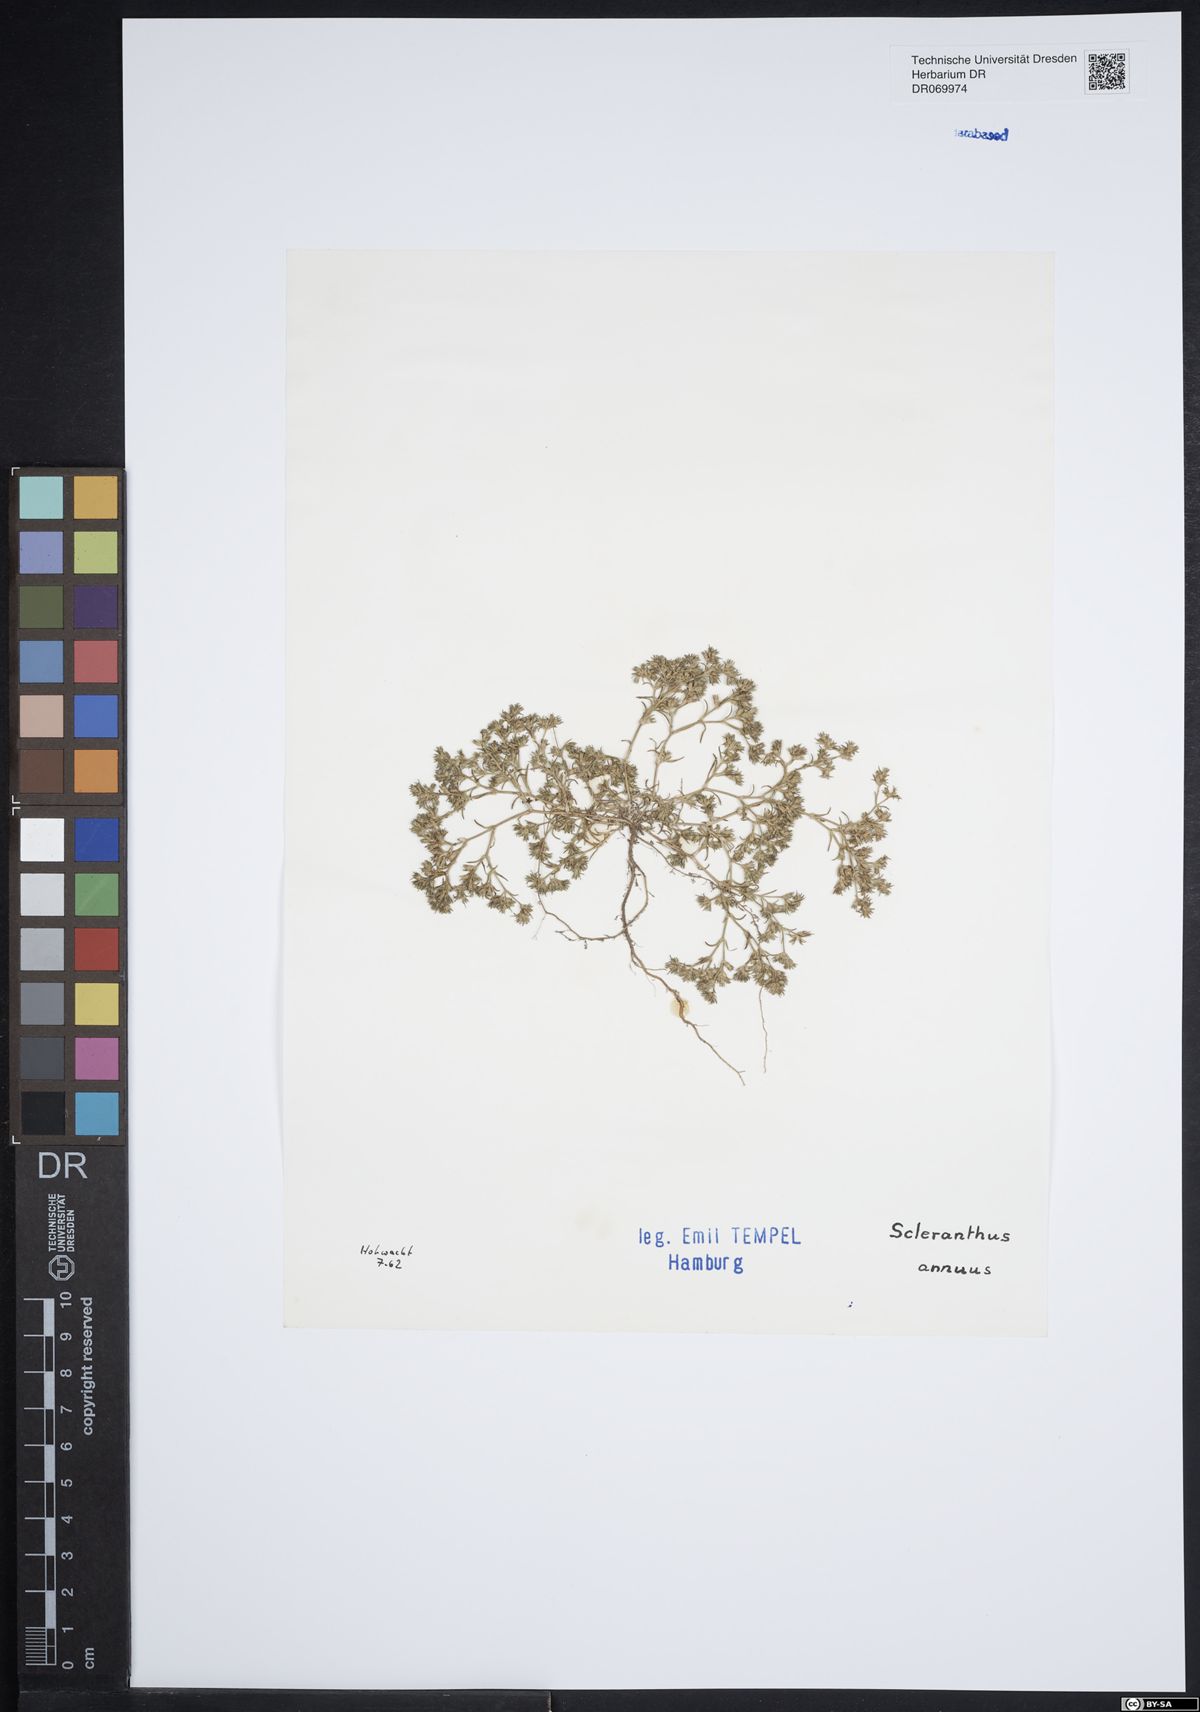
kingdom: Plantae
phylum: Tracheophyta
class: Magnoliopsida
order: Caryophyllales
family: Caryophyllaceae
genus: Scleranthus
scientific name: Scleranthus annuus
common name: Annual knawel
